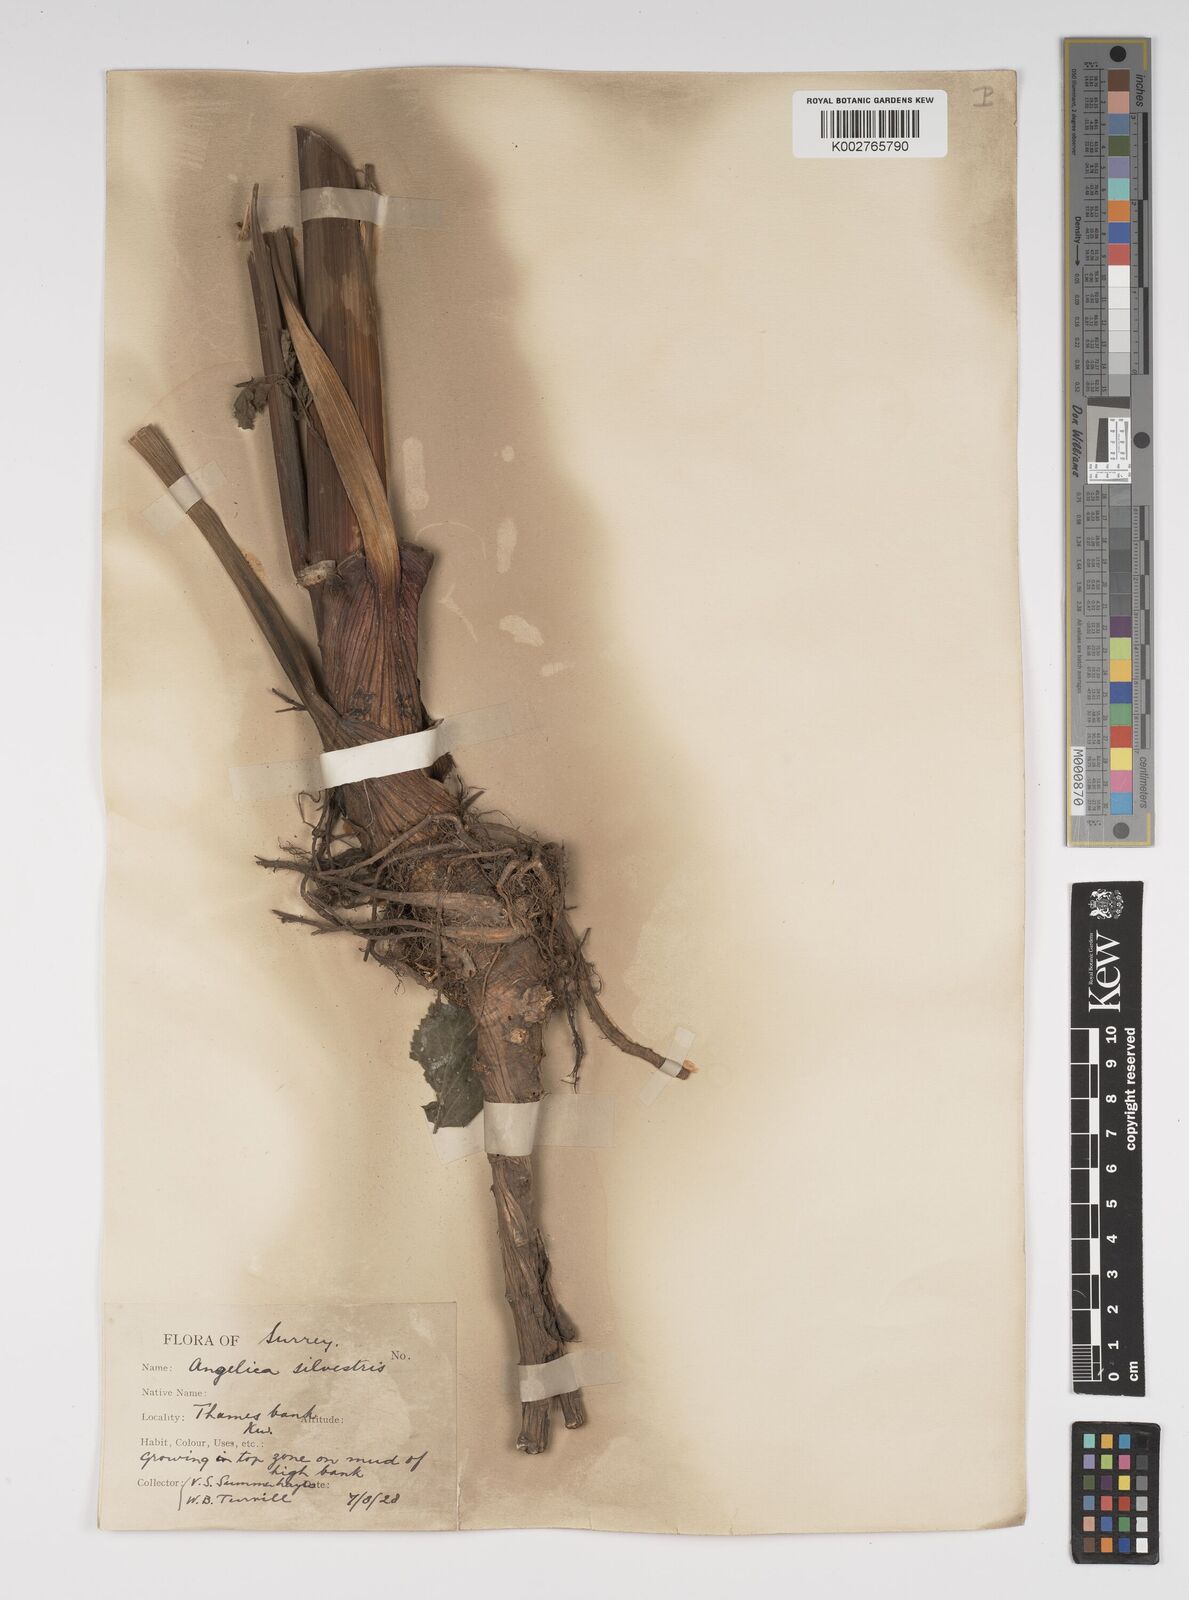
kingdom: Plantae
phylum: Tracheophyta
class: Magnoliopsida
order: Apiales
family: Apiaceae
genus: Angelica
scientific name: Angelica sylvestris
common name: Wild angelica
